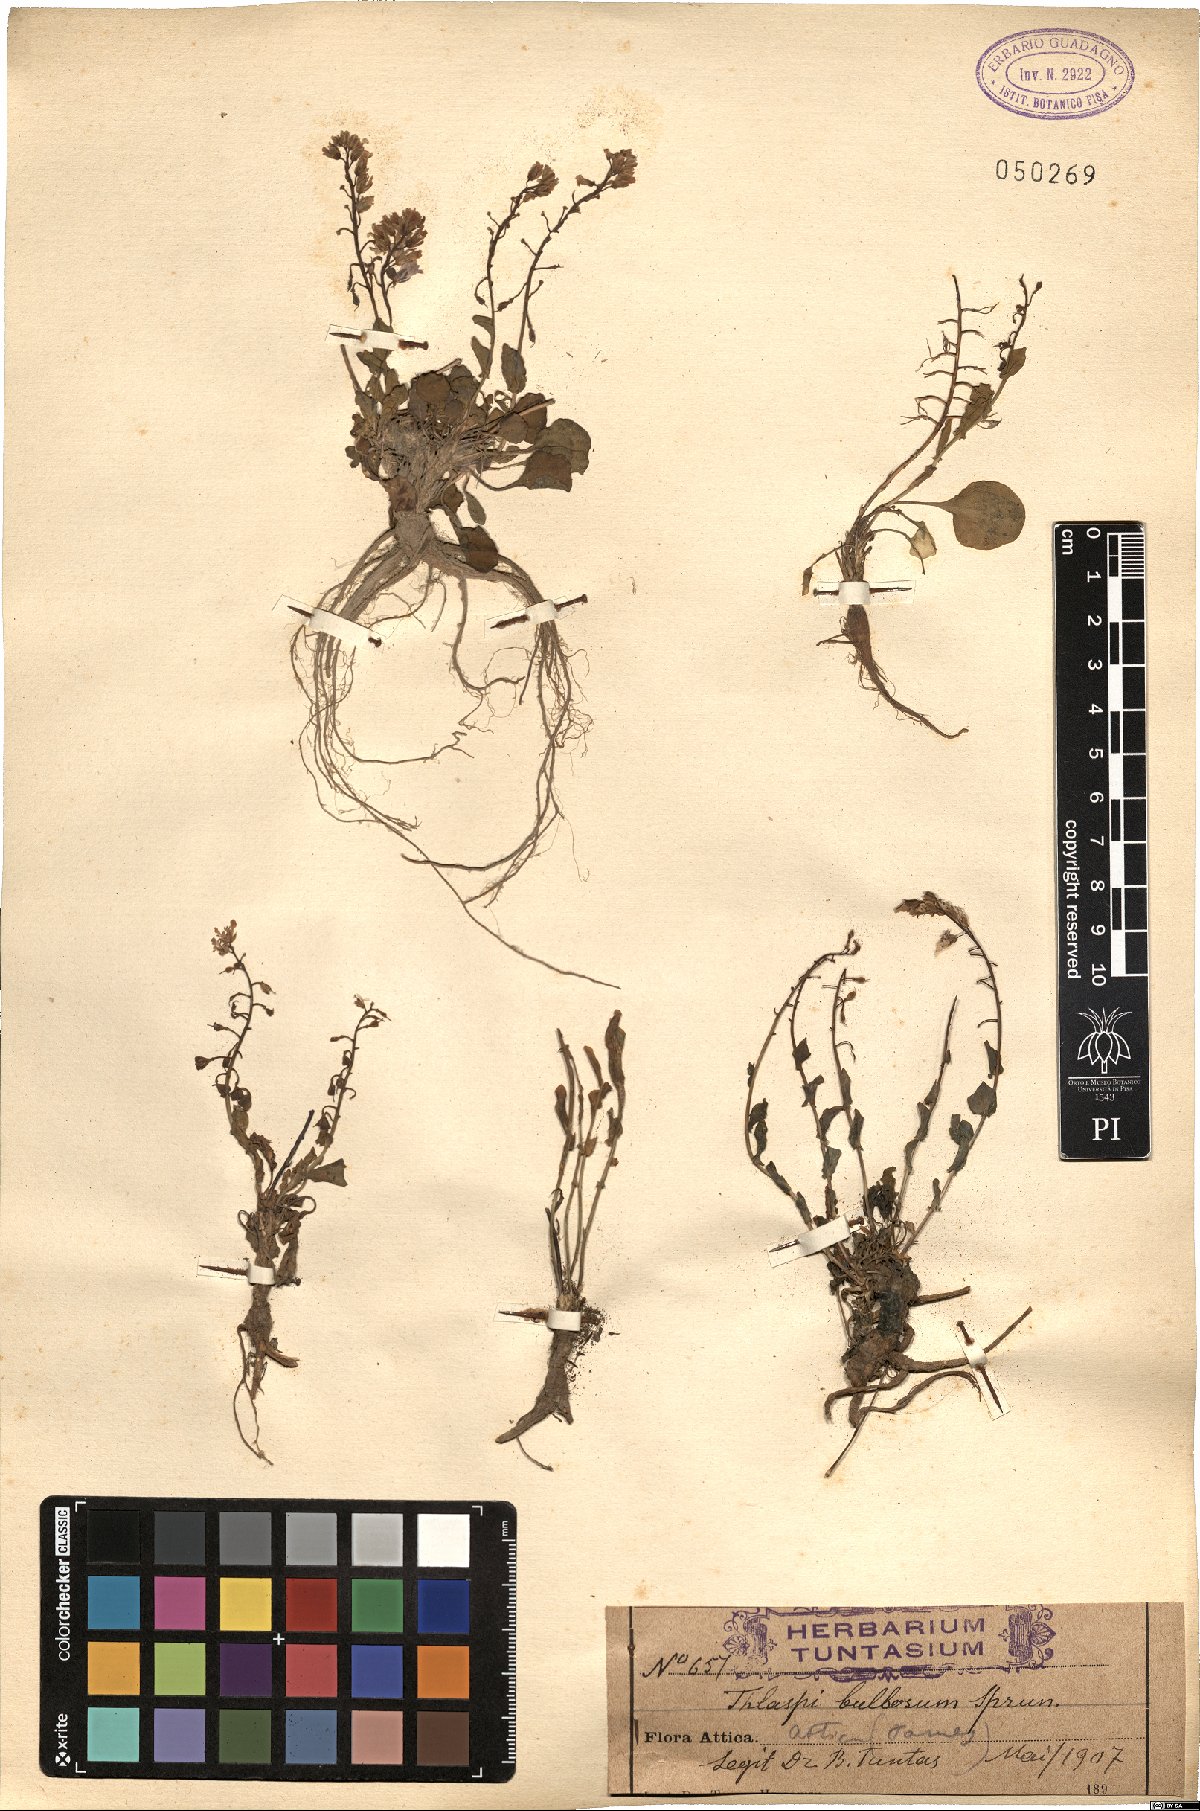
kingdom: Plantae
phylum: Tracheophyta
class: Magnoliopsida
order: Brassicales
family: Brassicaceae
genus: Noccaea
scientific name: Noccaea bulbosa
